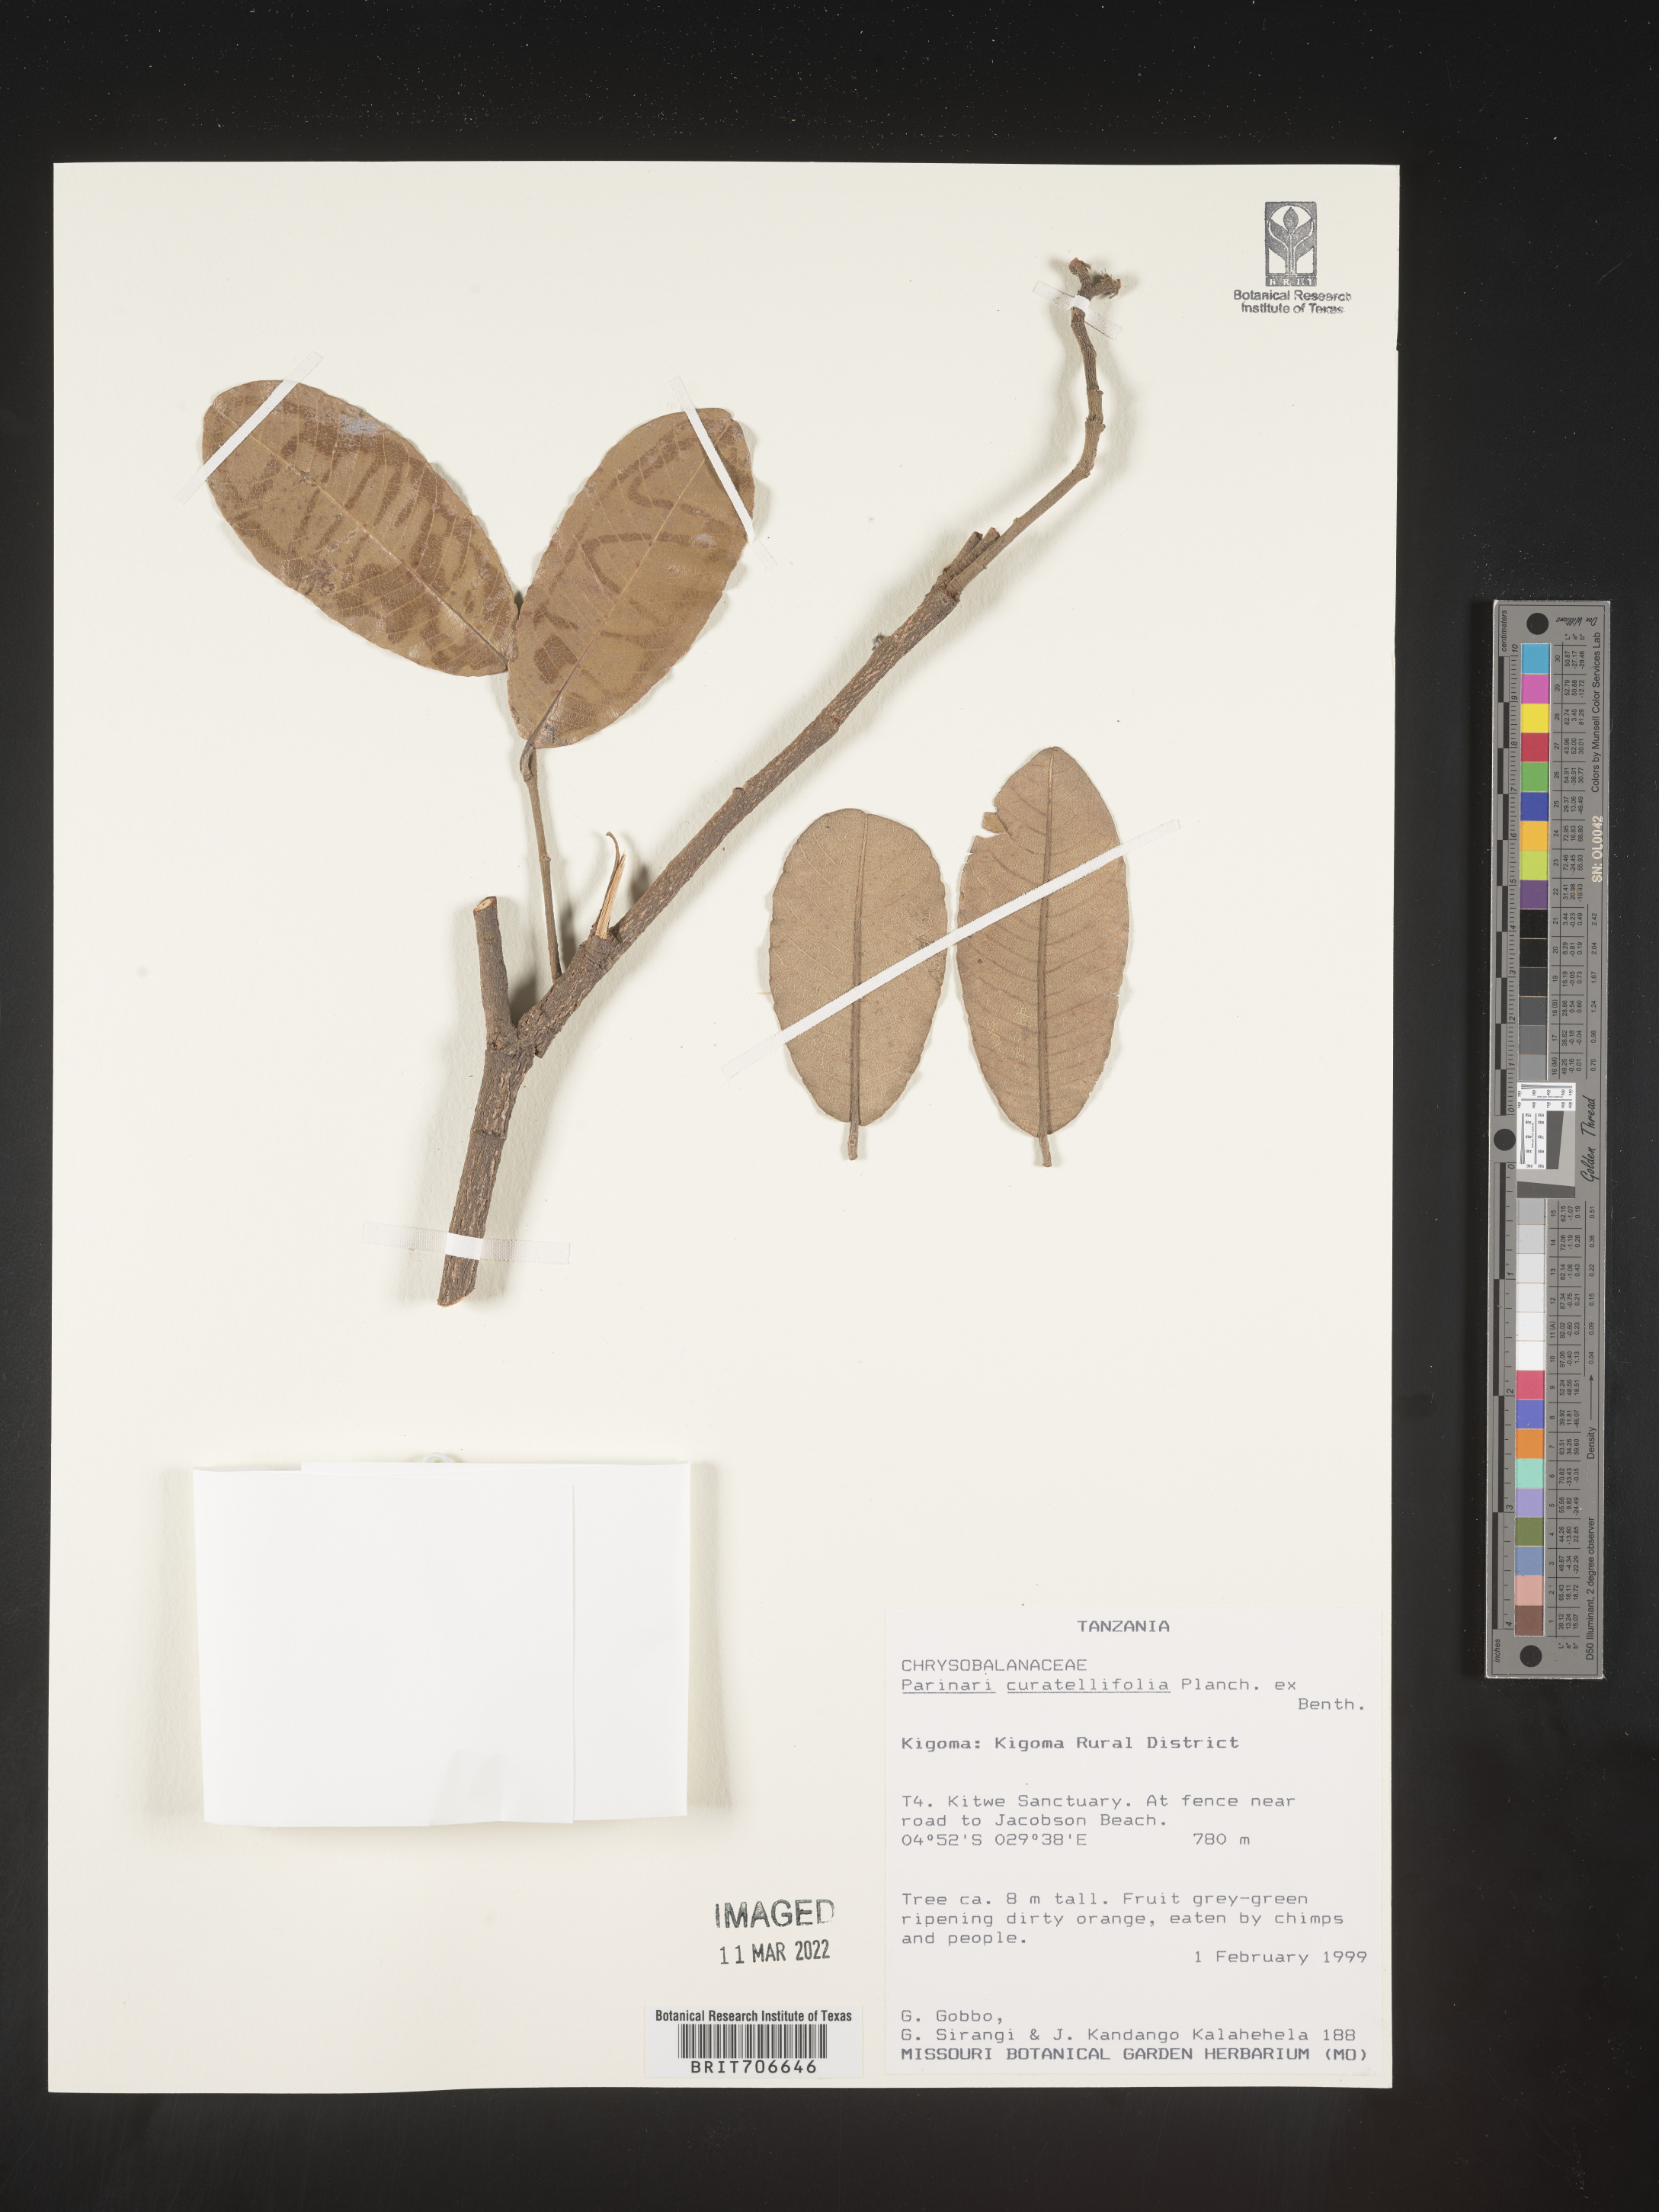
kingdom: Plantae
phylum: Tracheophyta
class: Magnoliopsida
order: Malpighiales
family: Chrysobalanaceae
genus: Parinari
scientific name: Parinari
